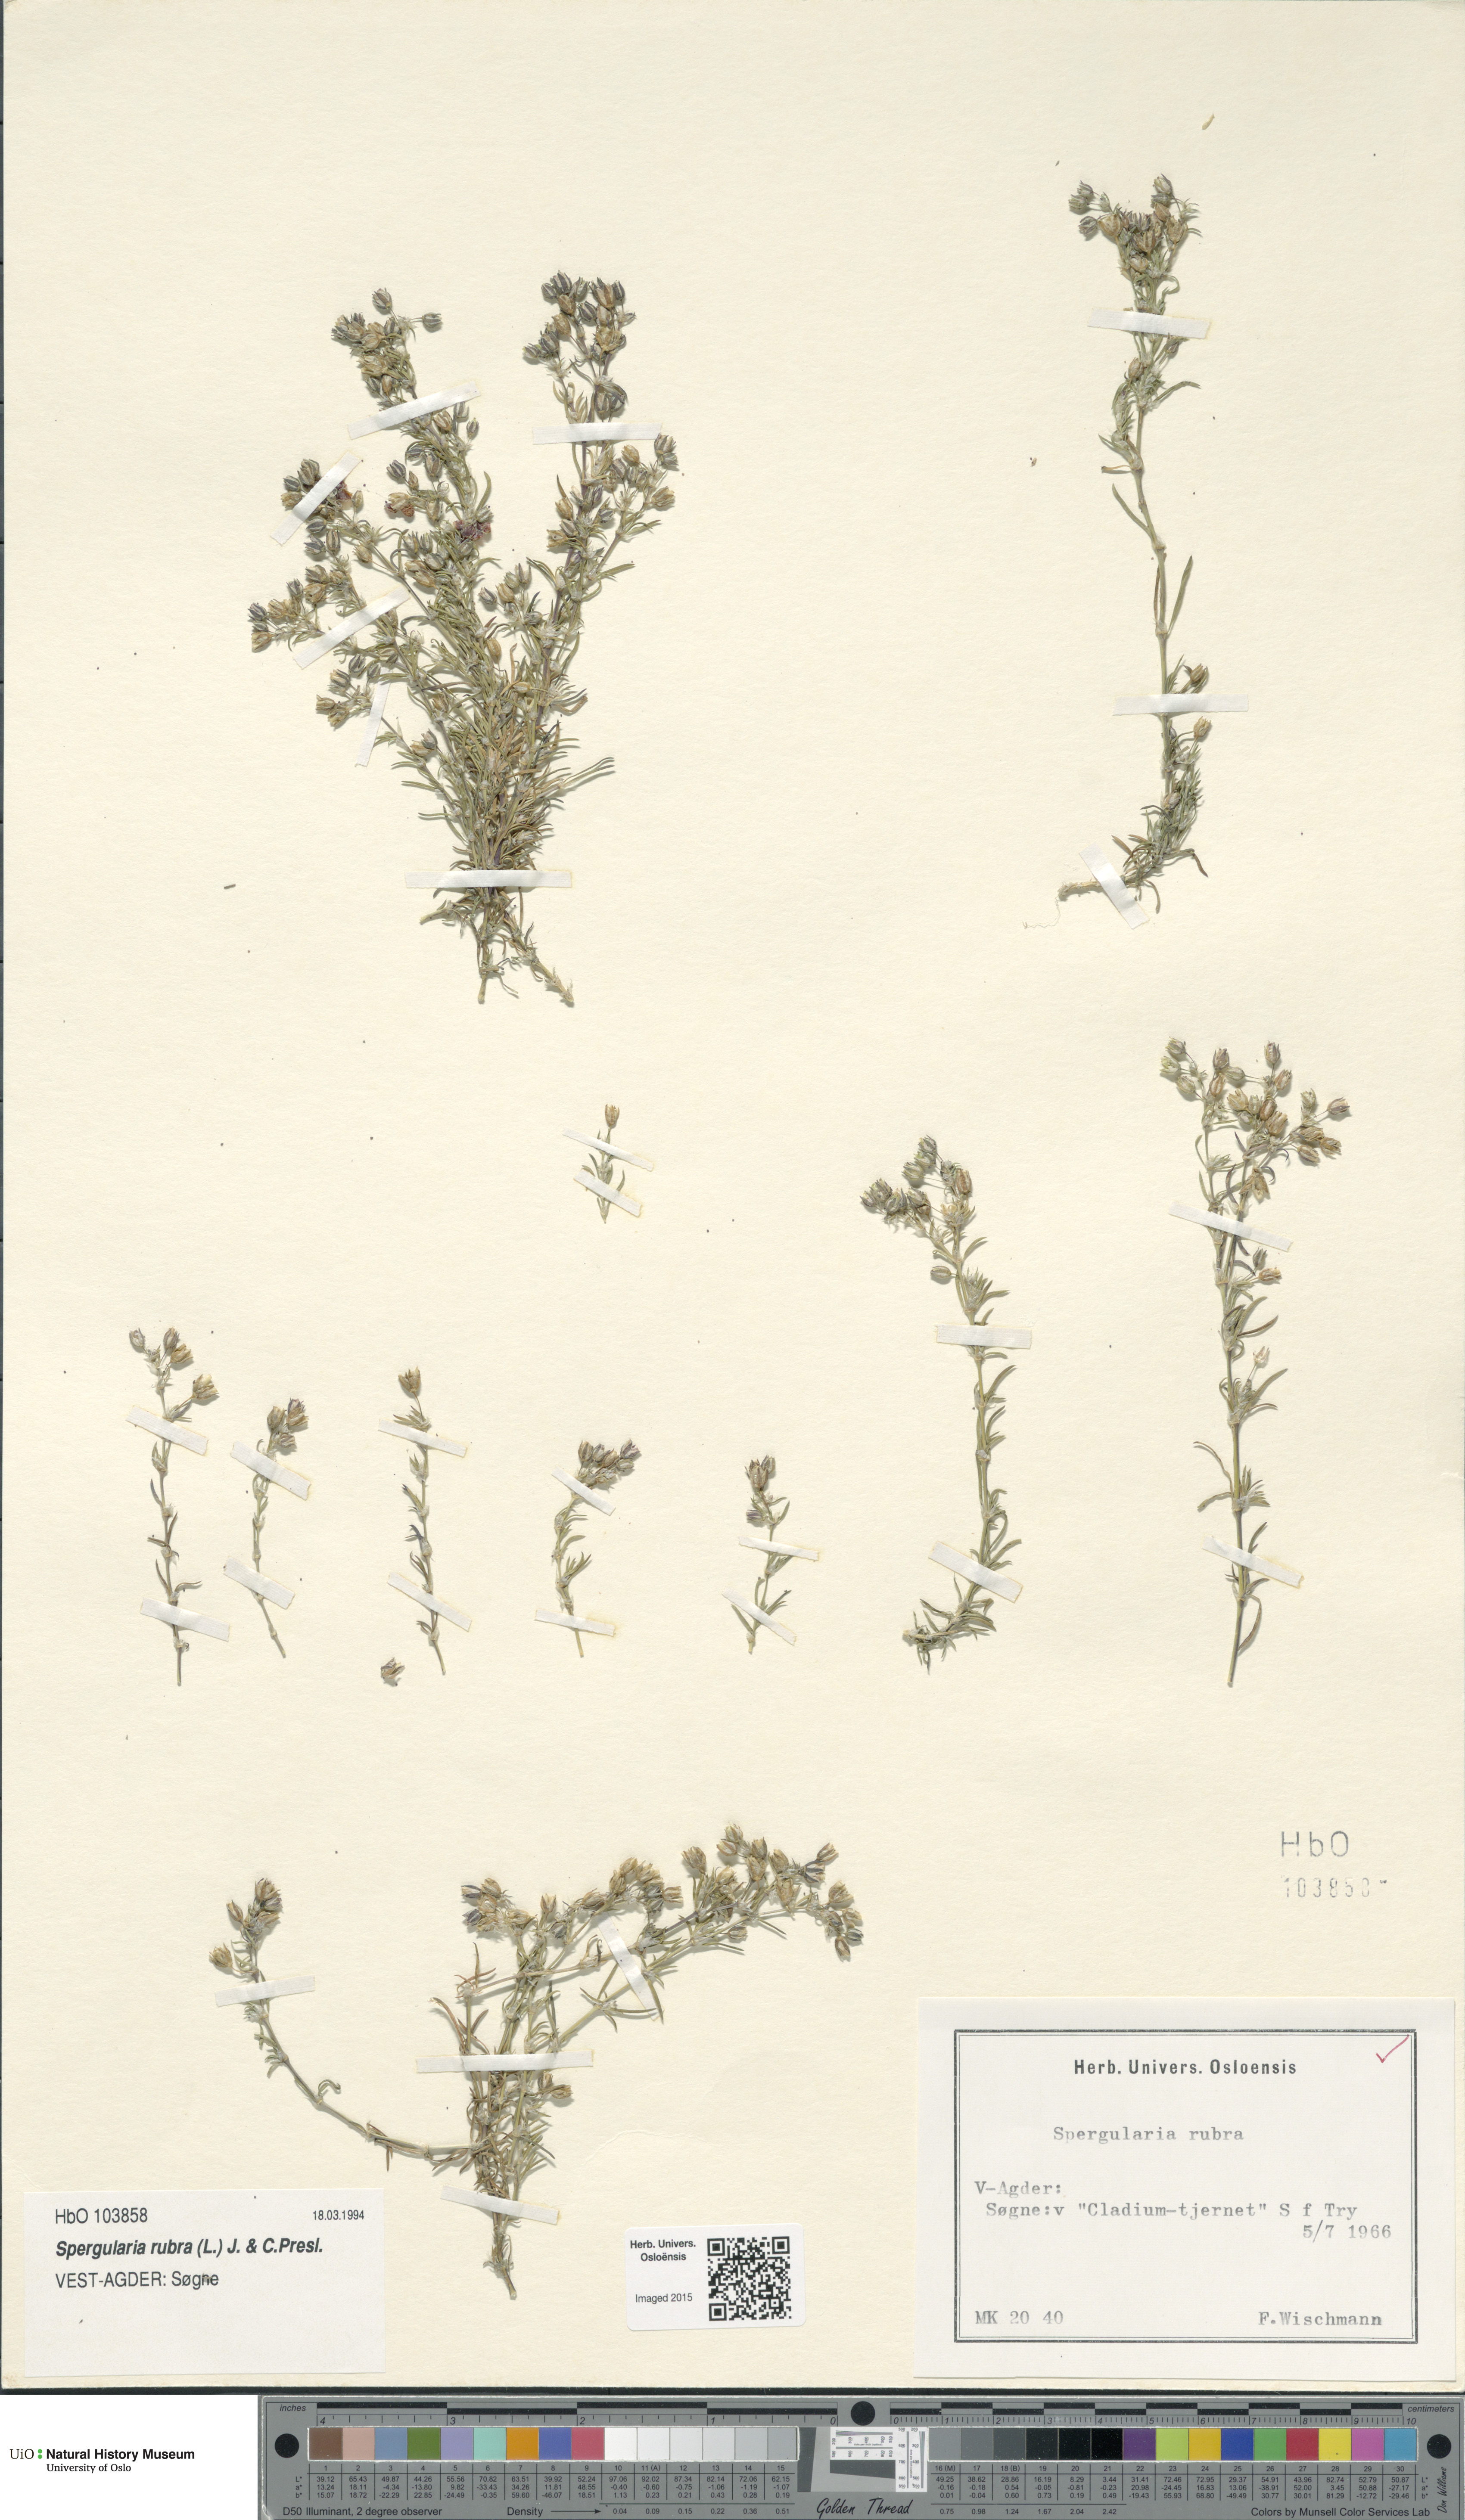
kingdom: Plantae
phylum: Tracheophyta
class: Magnoliopsida
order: Caryophyllales
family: Caryophyllaceae
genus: Spergularia
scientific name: Spergularia rubra
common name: Red sand-spurrey
